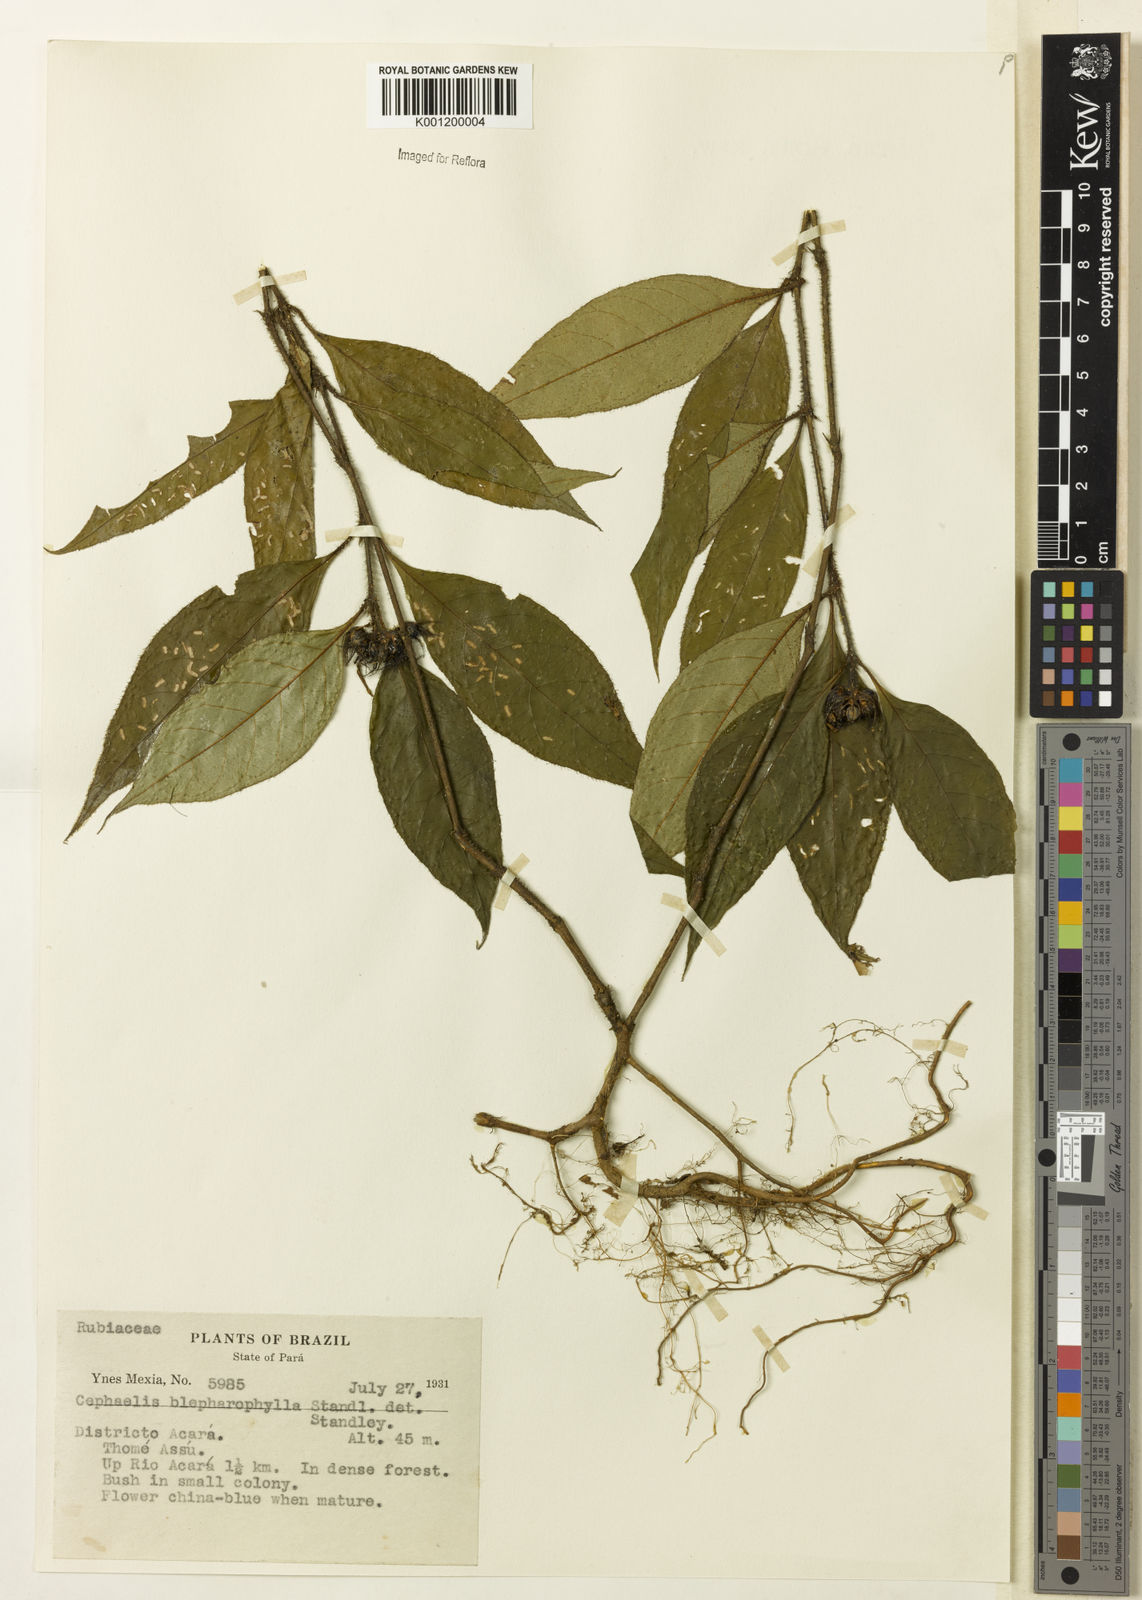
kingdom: Plantae
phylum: Tracheophyta
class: Magnoliopsida
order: Gentianales
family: Rubiaceae
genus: Psychotria
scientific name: Psychotria
